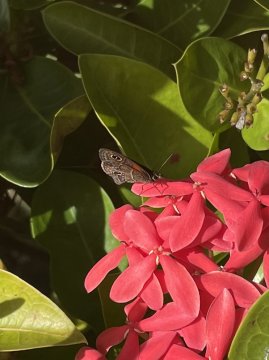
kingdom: Animalia
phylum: Arthropoda
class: Insecta
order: Lepidoptera
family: Nymphalidae
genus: Calisto
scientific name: Calisto obscura
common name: Obscure Calisto
